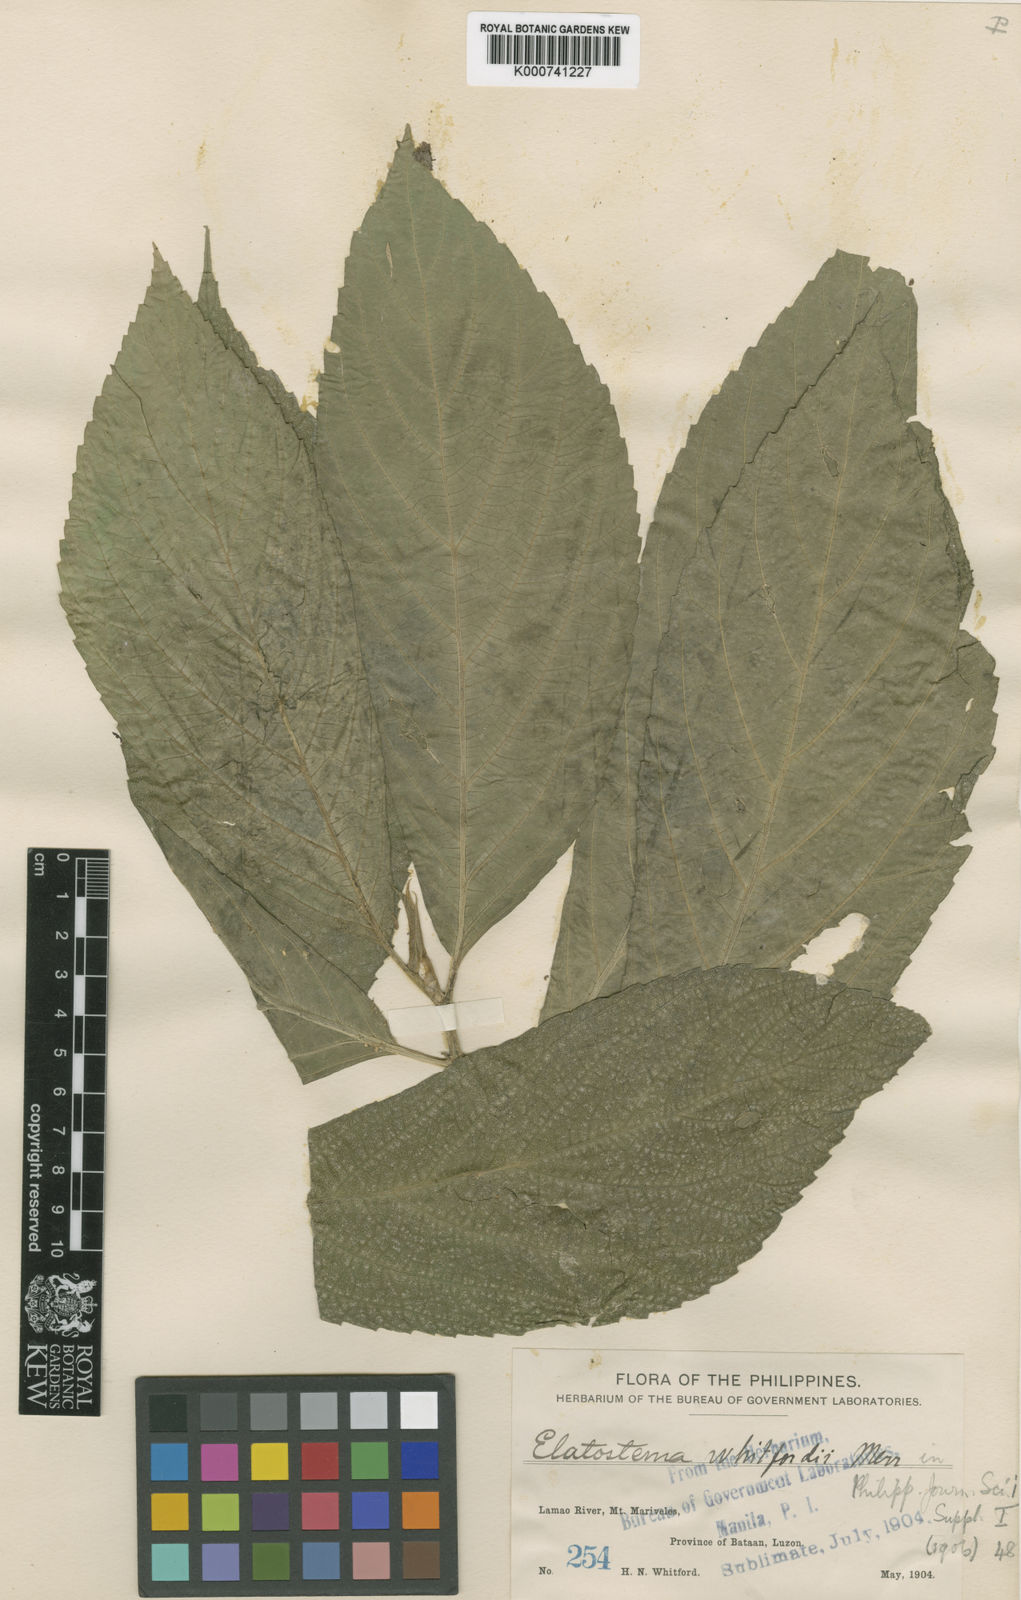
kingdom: Plantae
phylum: Tracheophyta
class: Magnoliopsida
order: Rosales
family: Urticaceae
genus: Elatostema
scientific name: Elatostema whitfordii
